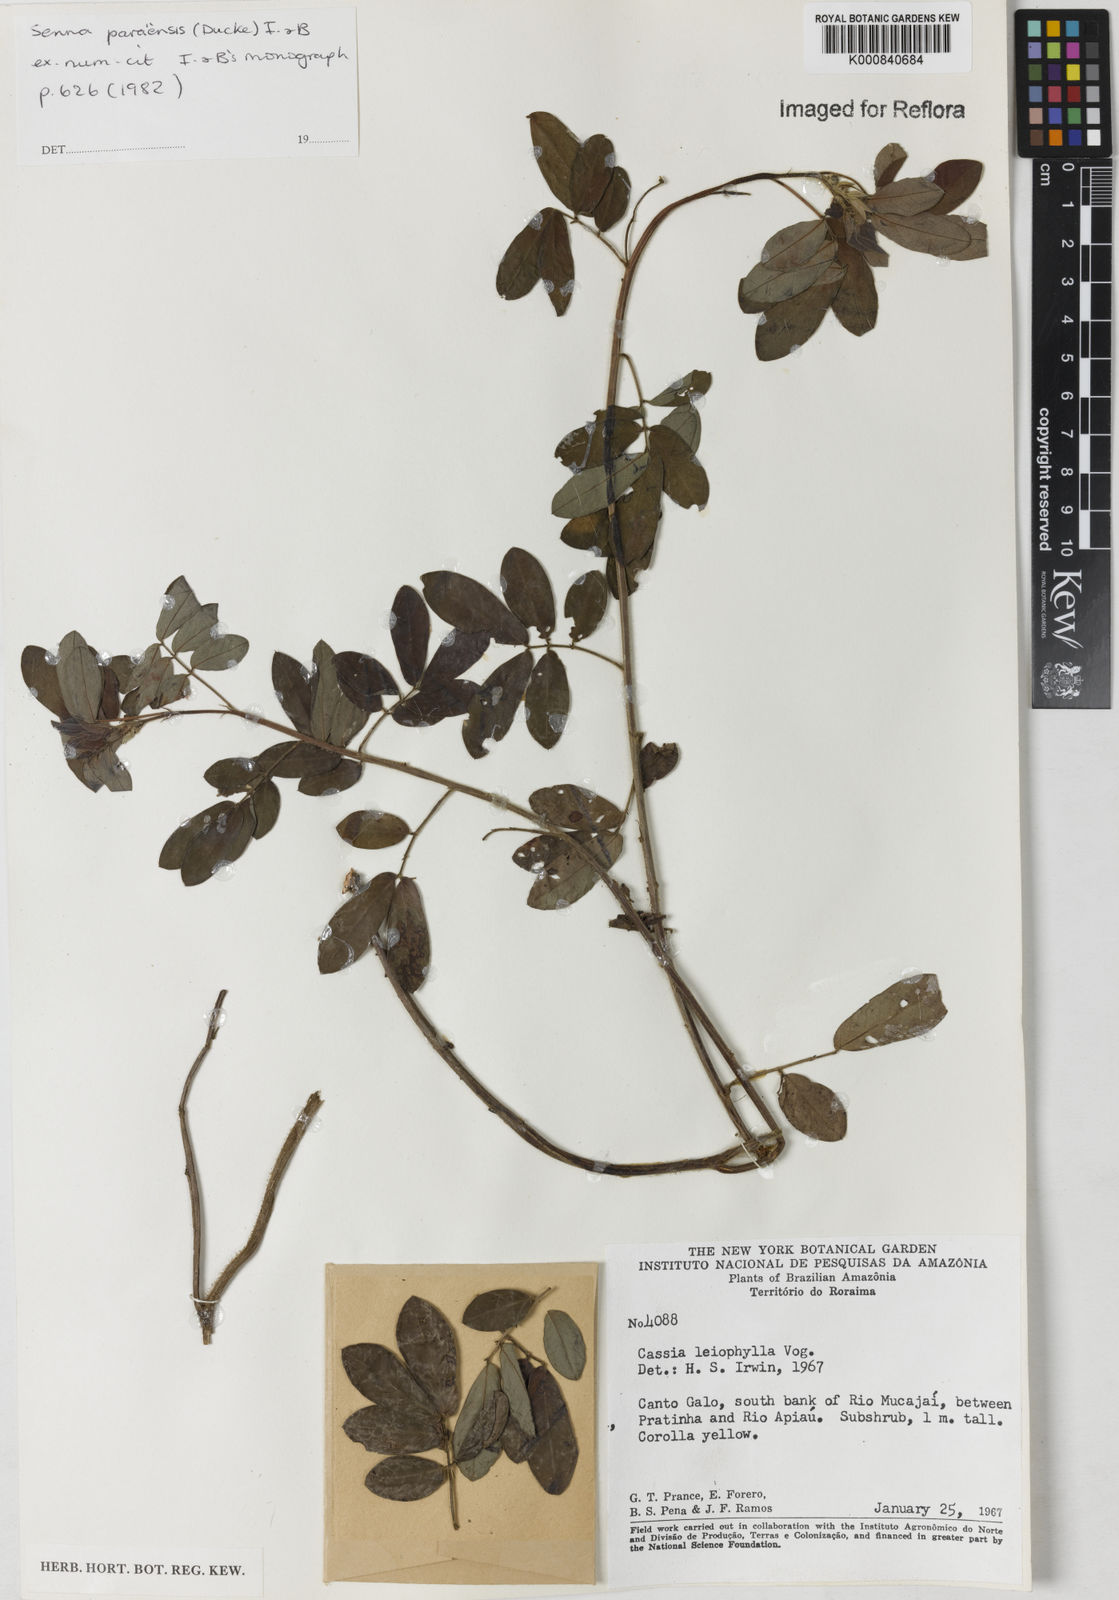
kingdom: Plantae
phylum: Tracheophyta
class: Magnoliopsida
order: Fabales
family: Fabaceae
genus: Senna
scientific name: Senna paraensis
